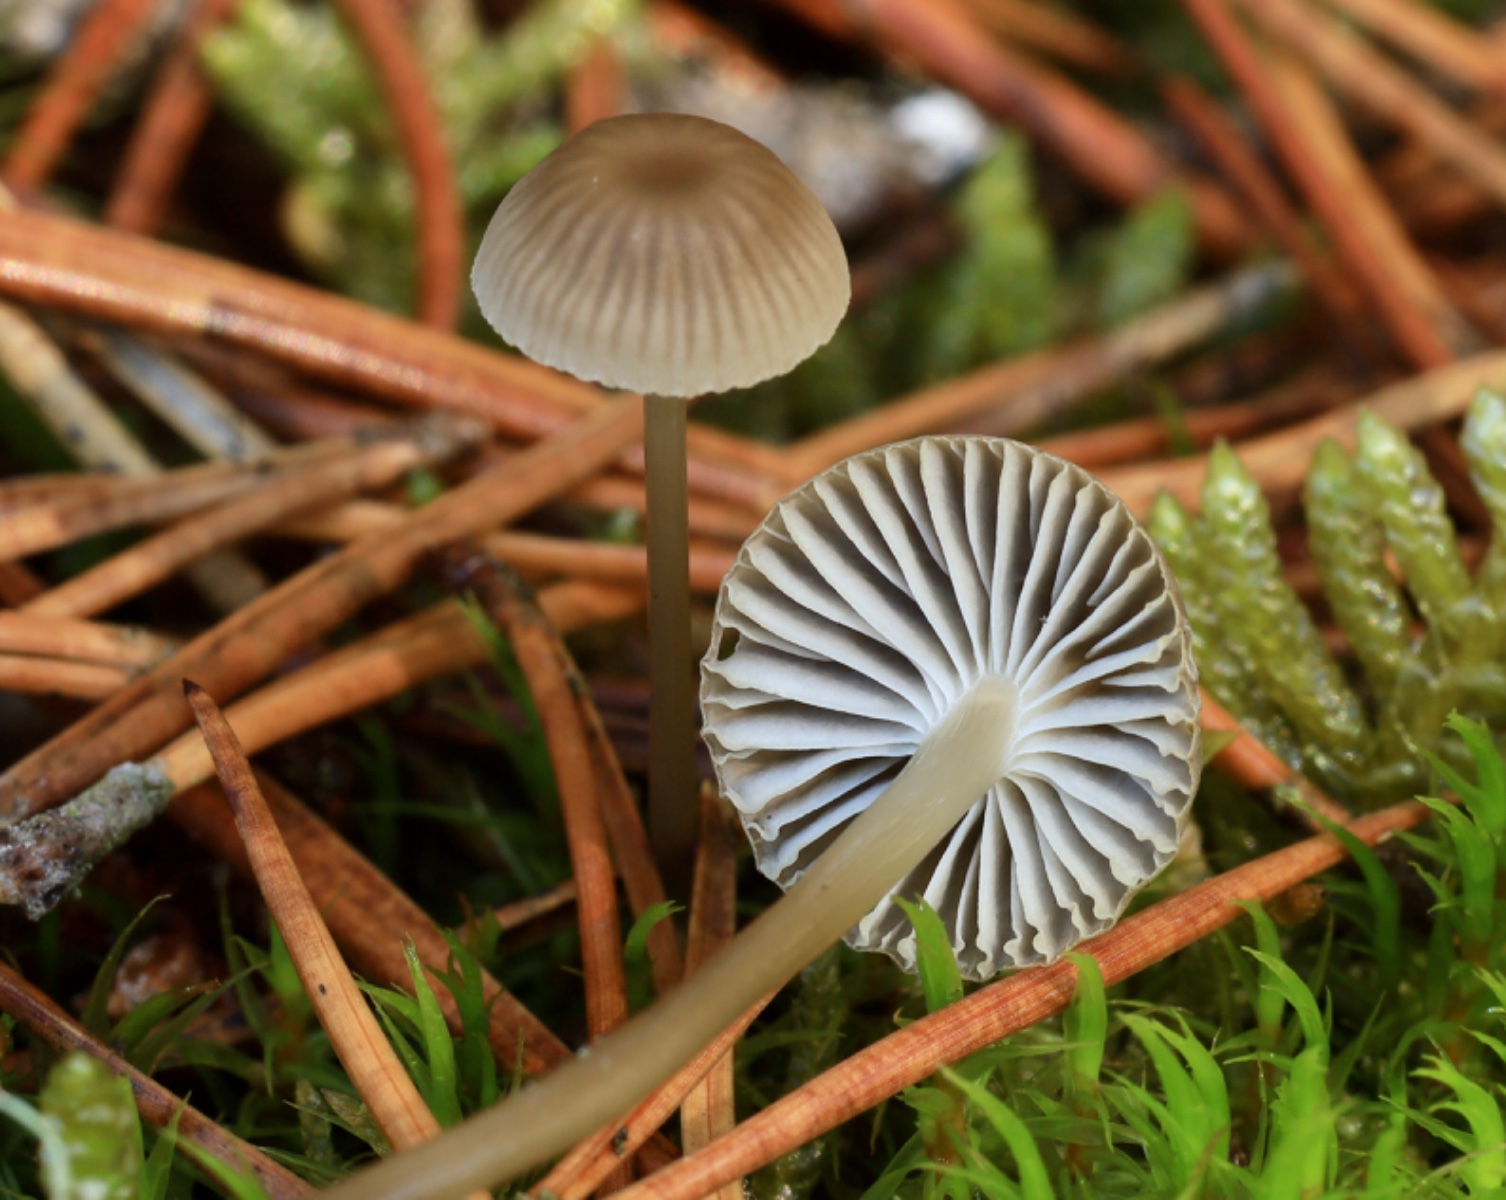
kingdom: Fungi
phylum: Basidiomycota
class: Agaricomycetes
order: Agaricales
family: Mycenaceae
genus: Mycena
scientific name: Mycena clavicularis
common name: fyrre-huesvamp
